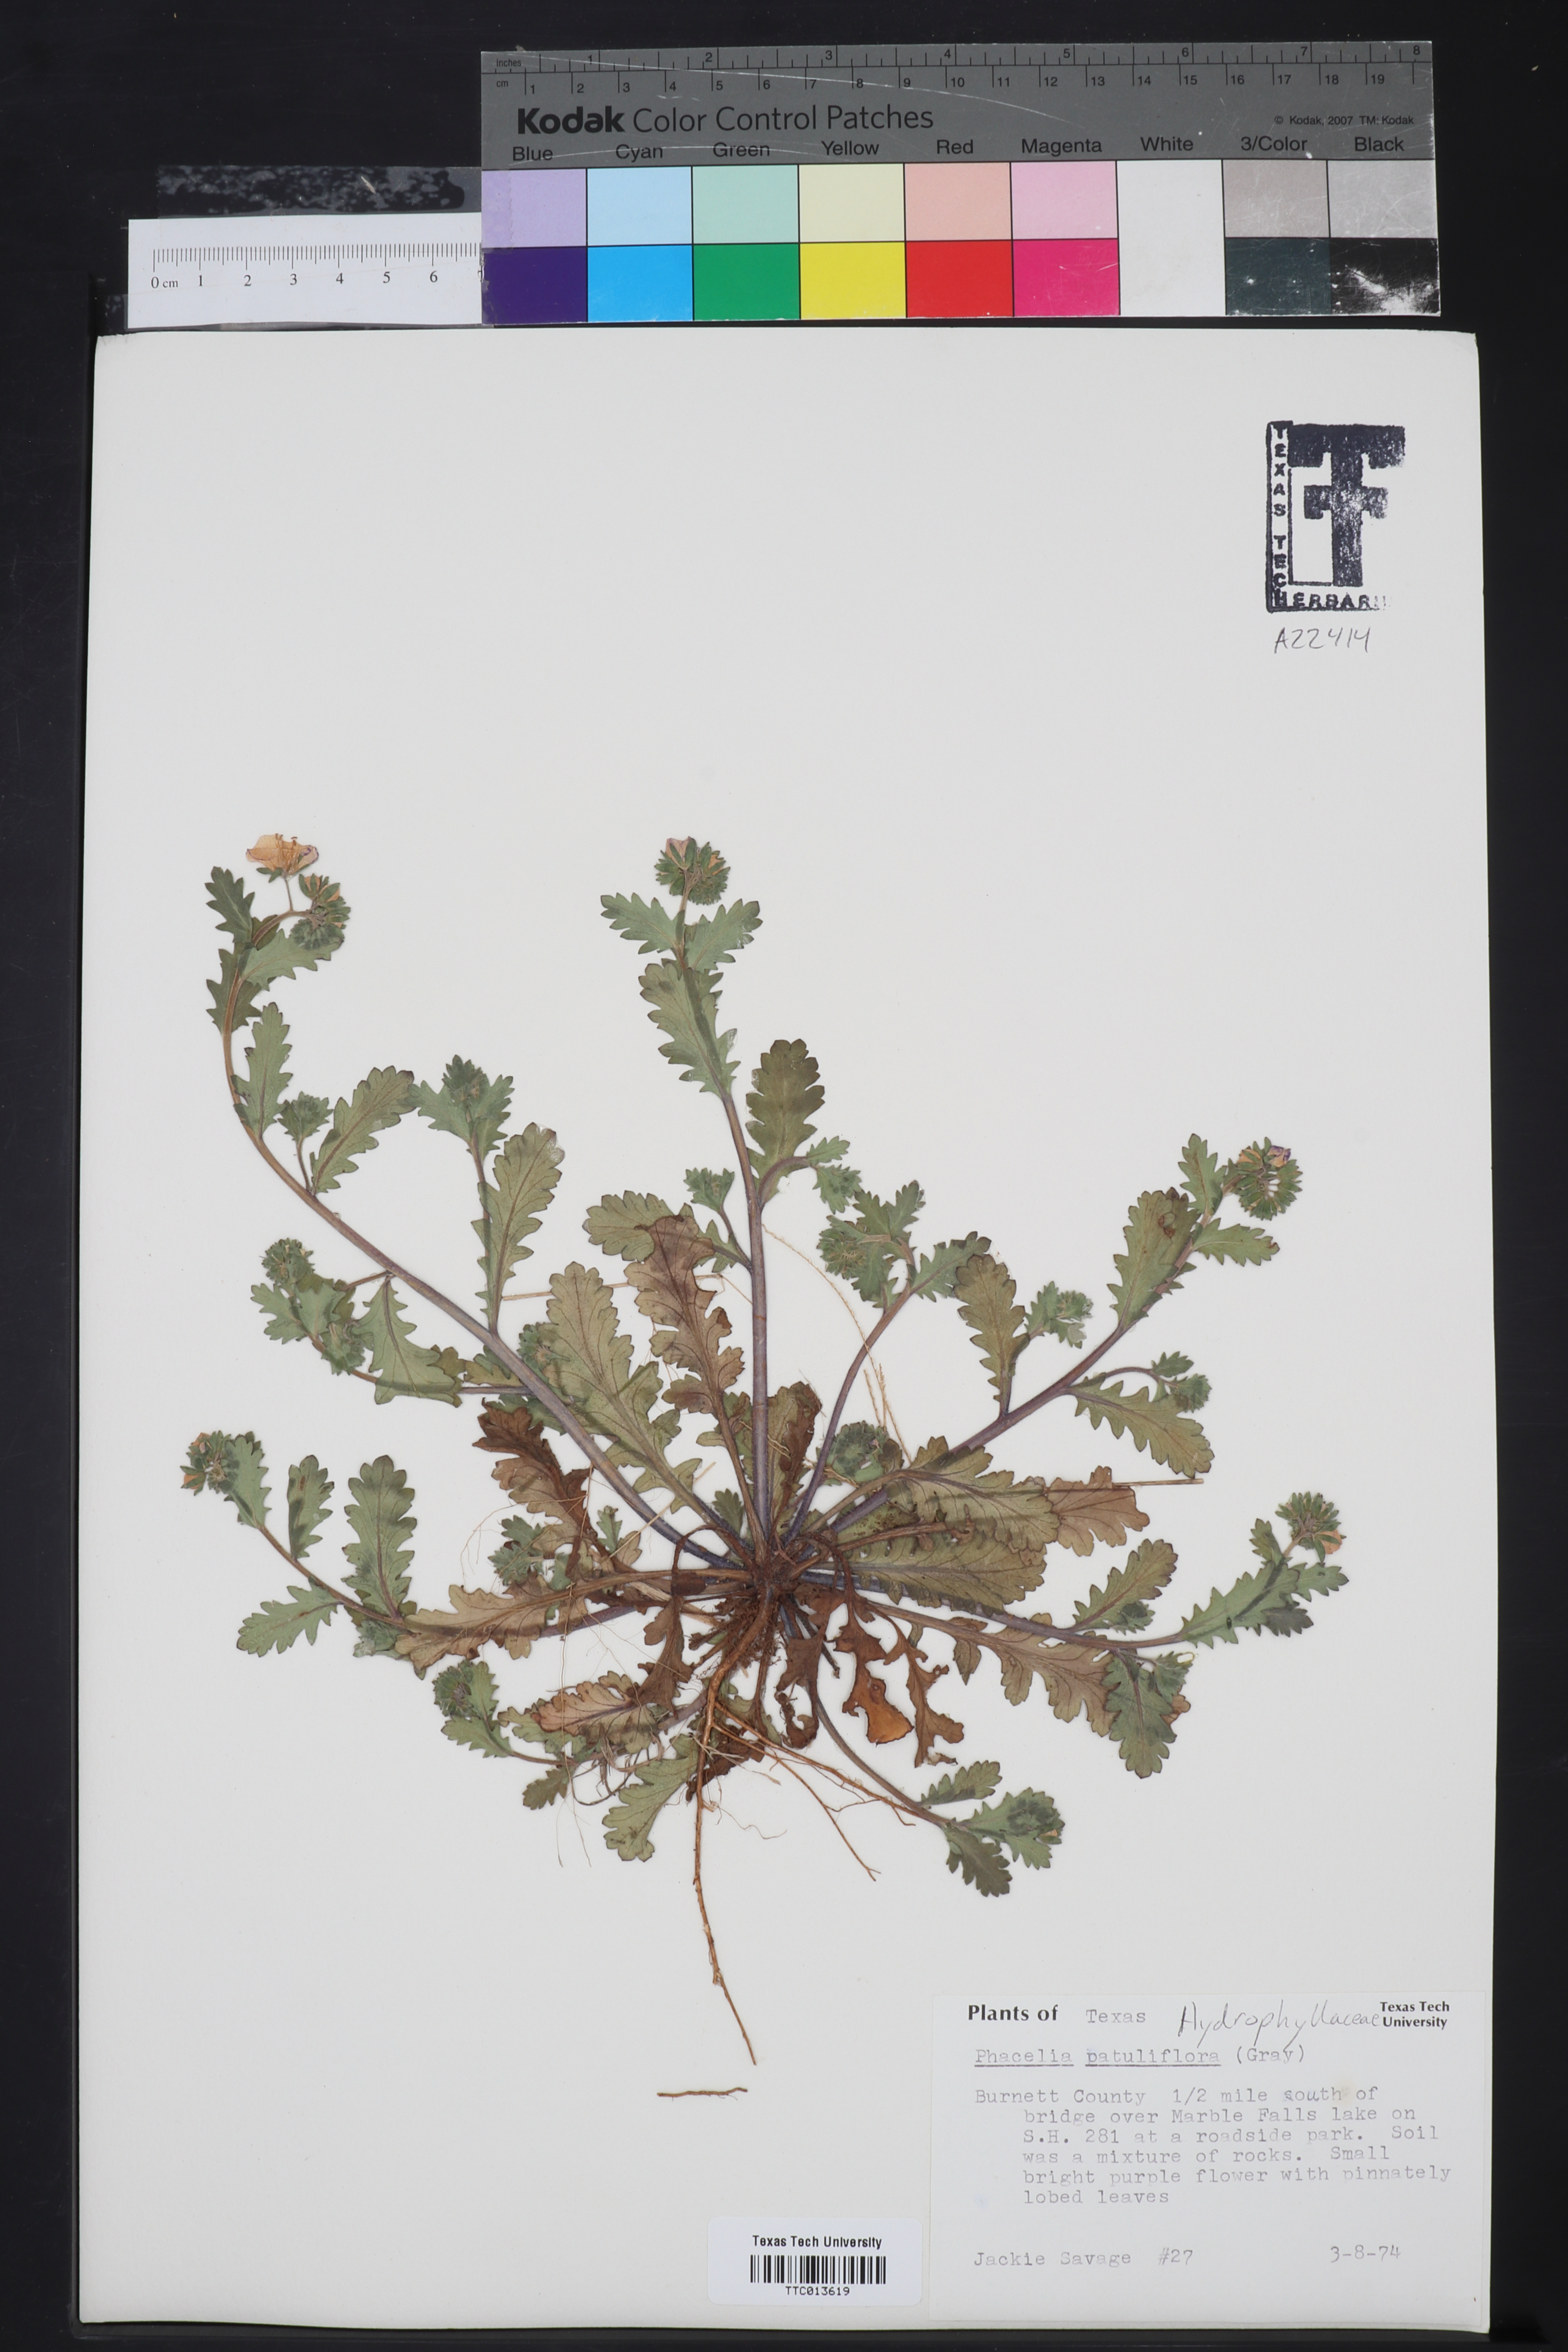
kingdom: Plantae
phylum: Tracheophyta
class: Magnoliopsida
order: Boraginales
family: Hydrophyllaceae
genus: Phacelia
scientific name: Phacelia patuliflora
